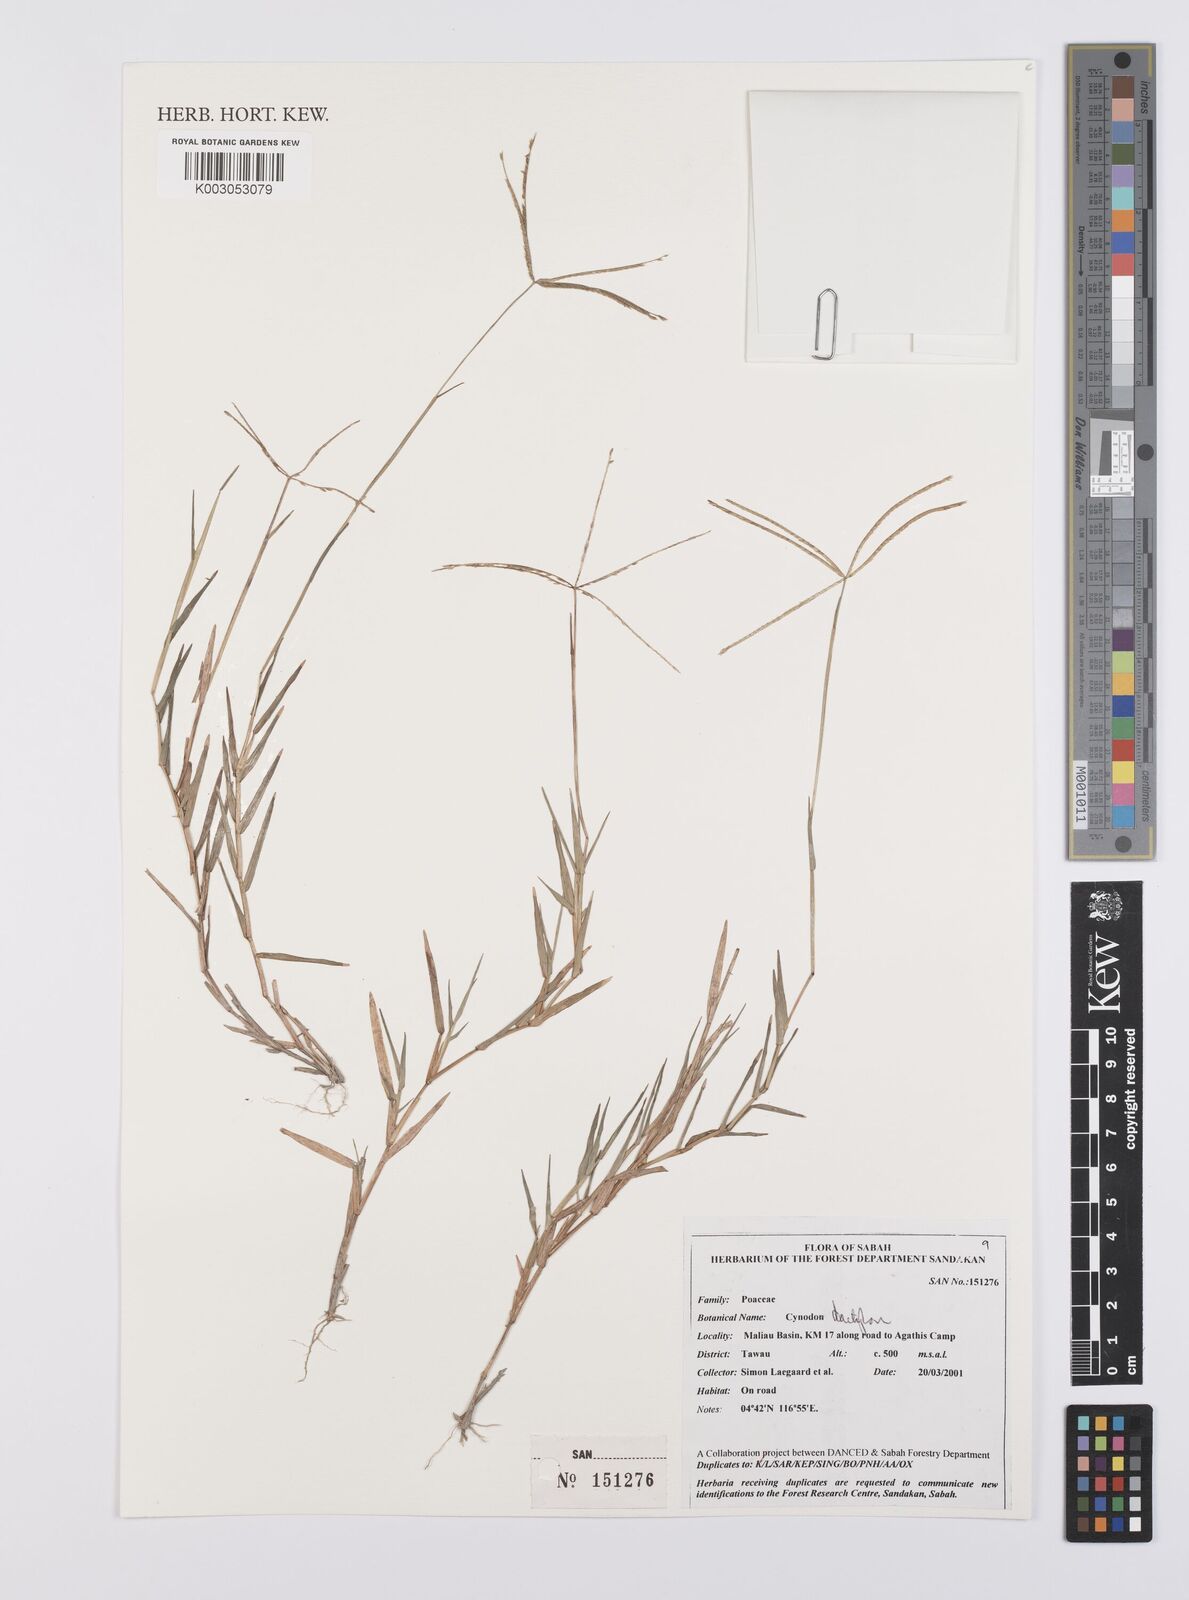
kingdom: Plantae
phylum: Tracheophyta
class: Liliopsida
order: Poales
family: Poaceae
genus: Cynodon
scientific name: Cynodon dactylon
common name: Bermuda grass
